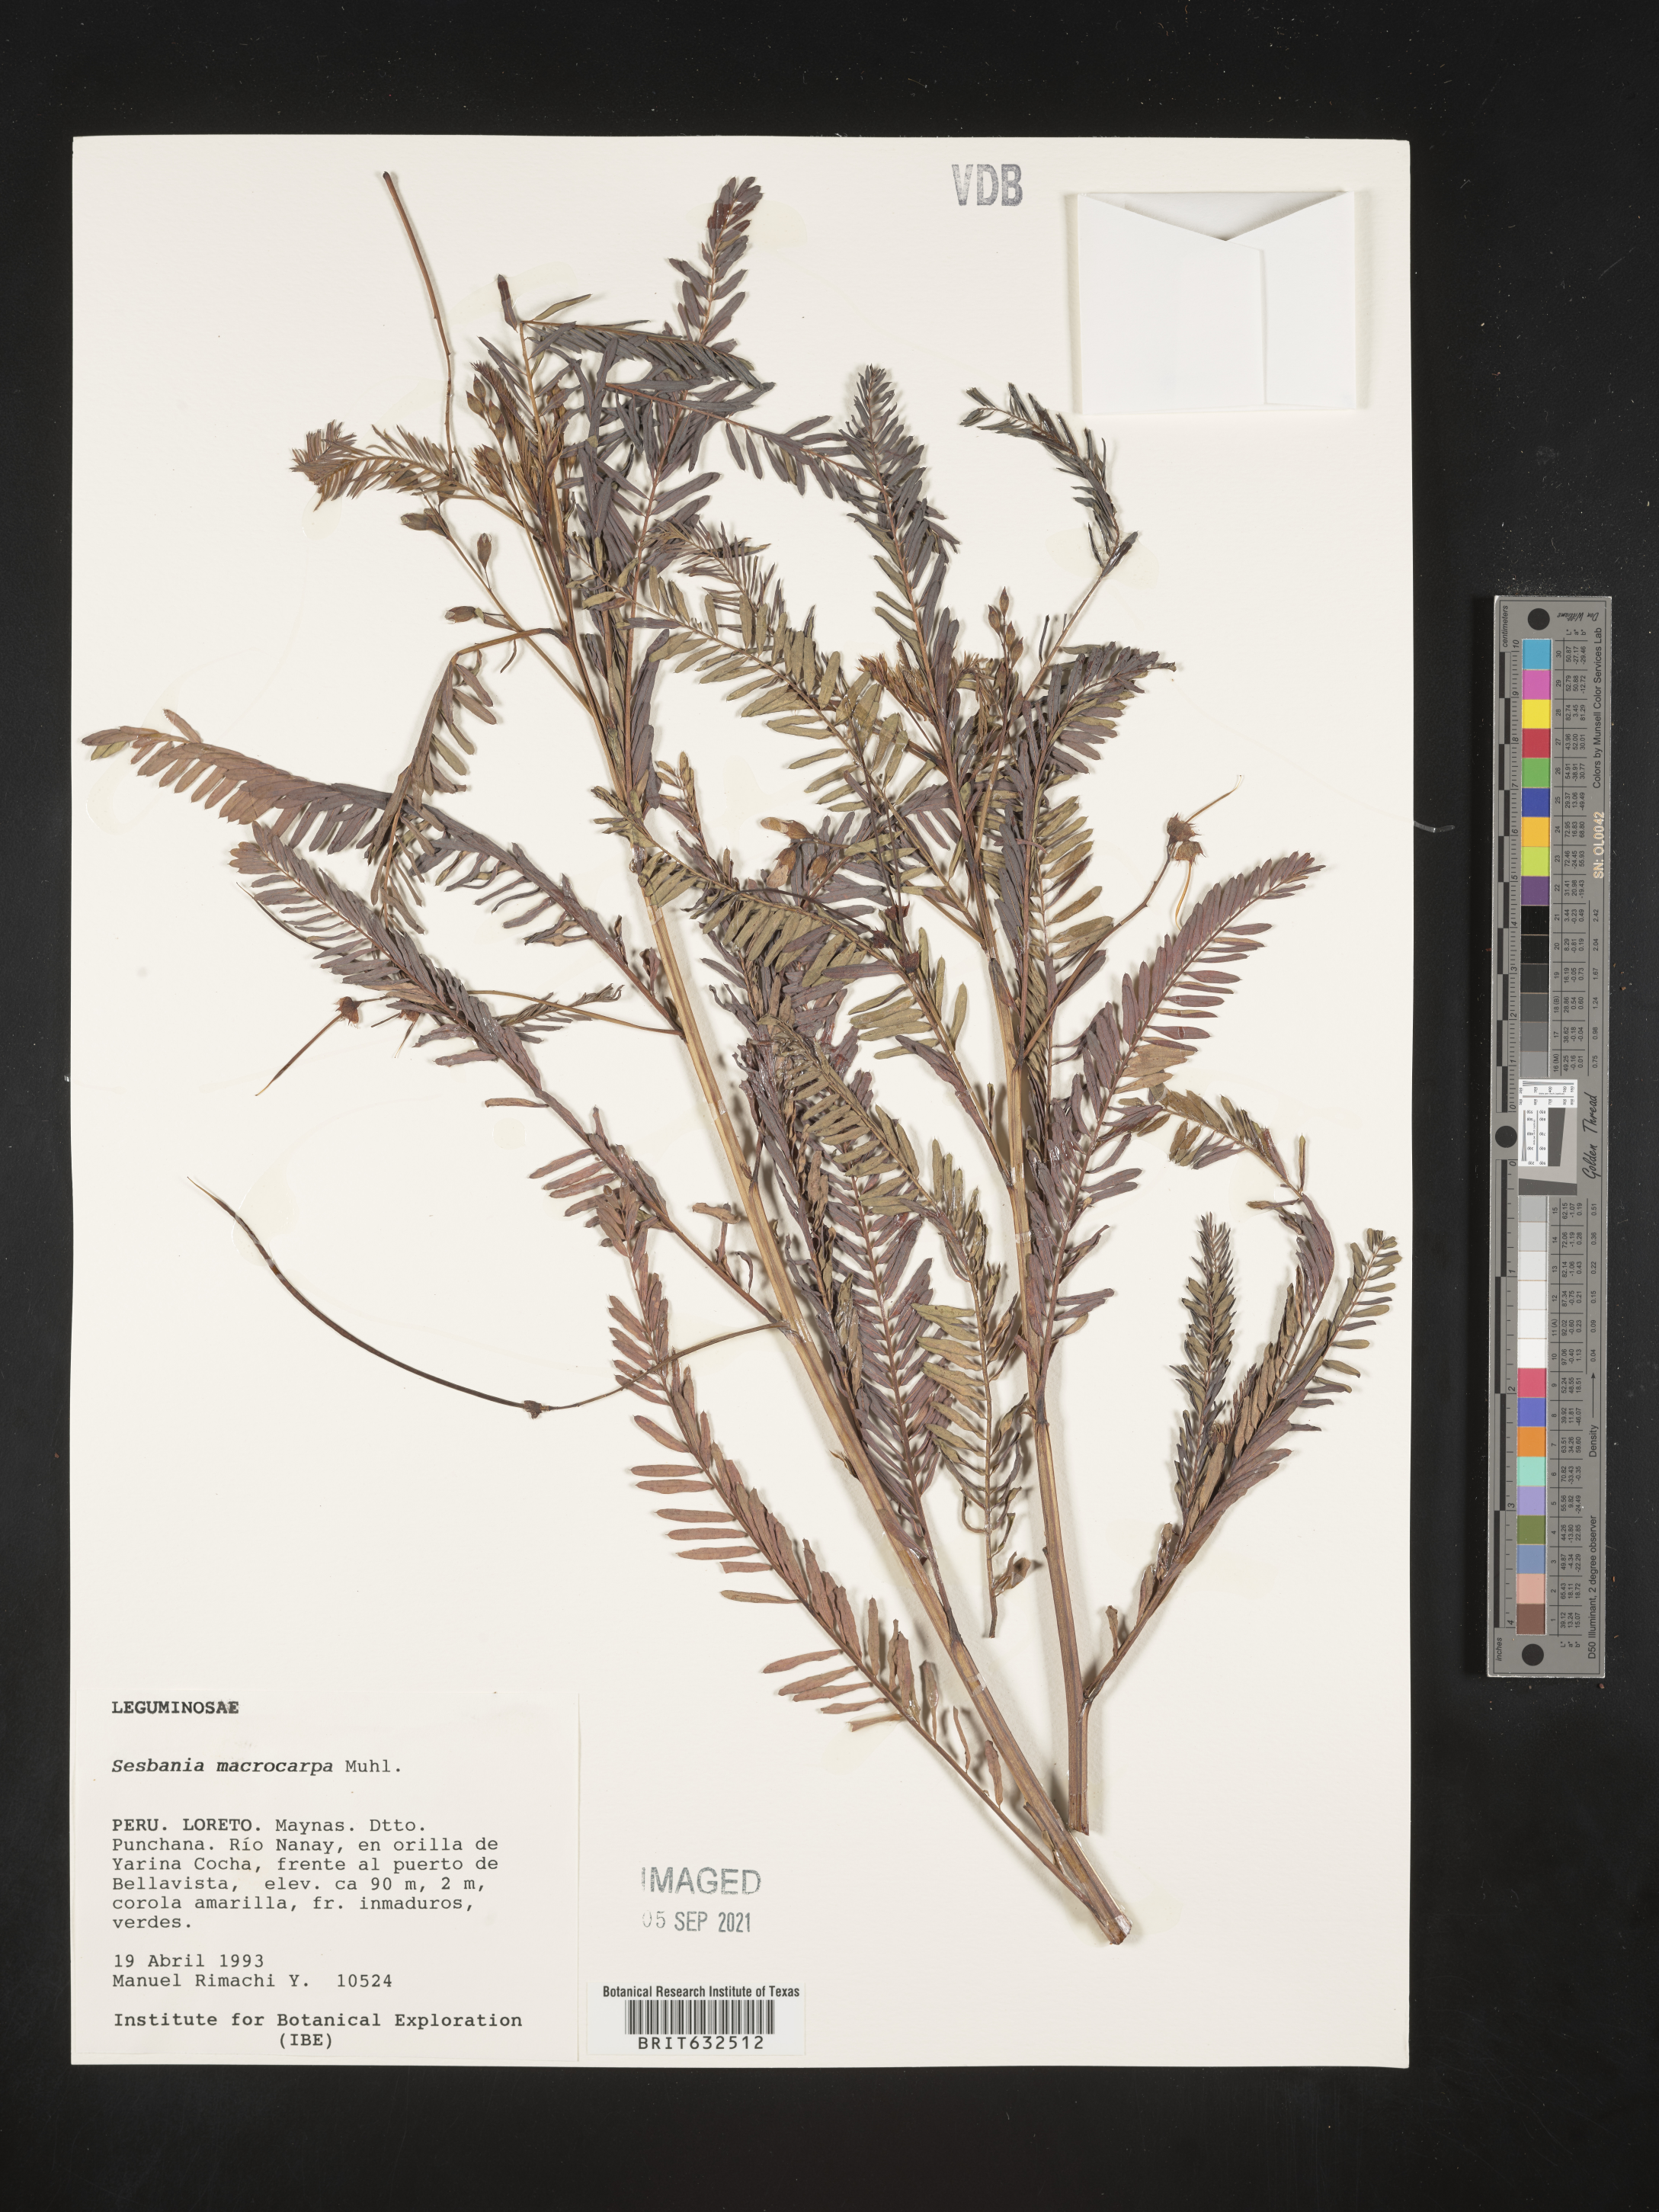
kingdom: Plantae
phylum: Tracheophyta
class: Magnoliopsida
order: Fabales
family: Fabaceae
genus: Sesbania
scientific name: Sesbania
